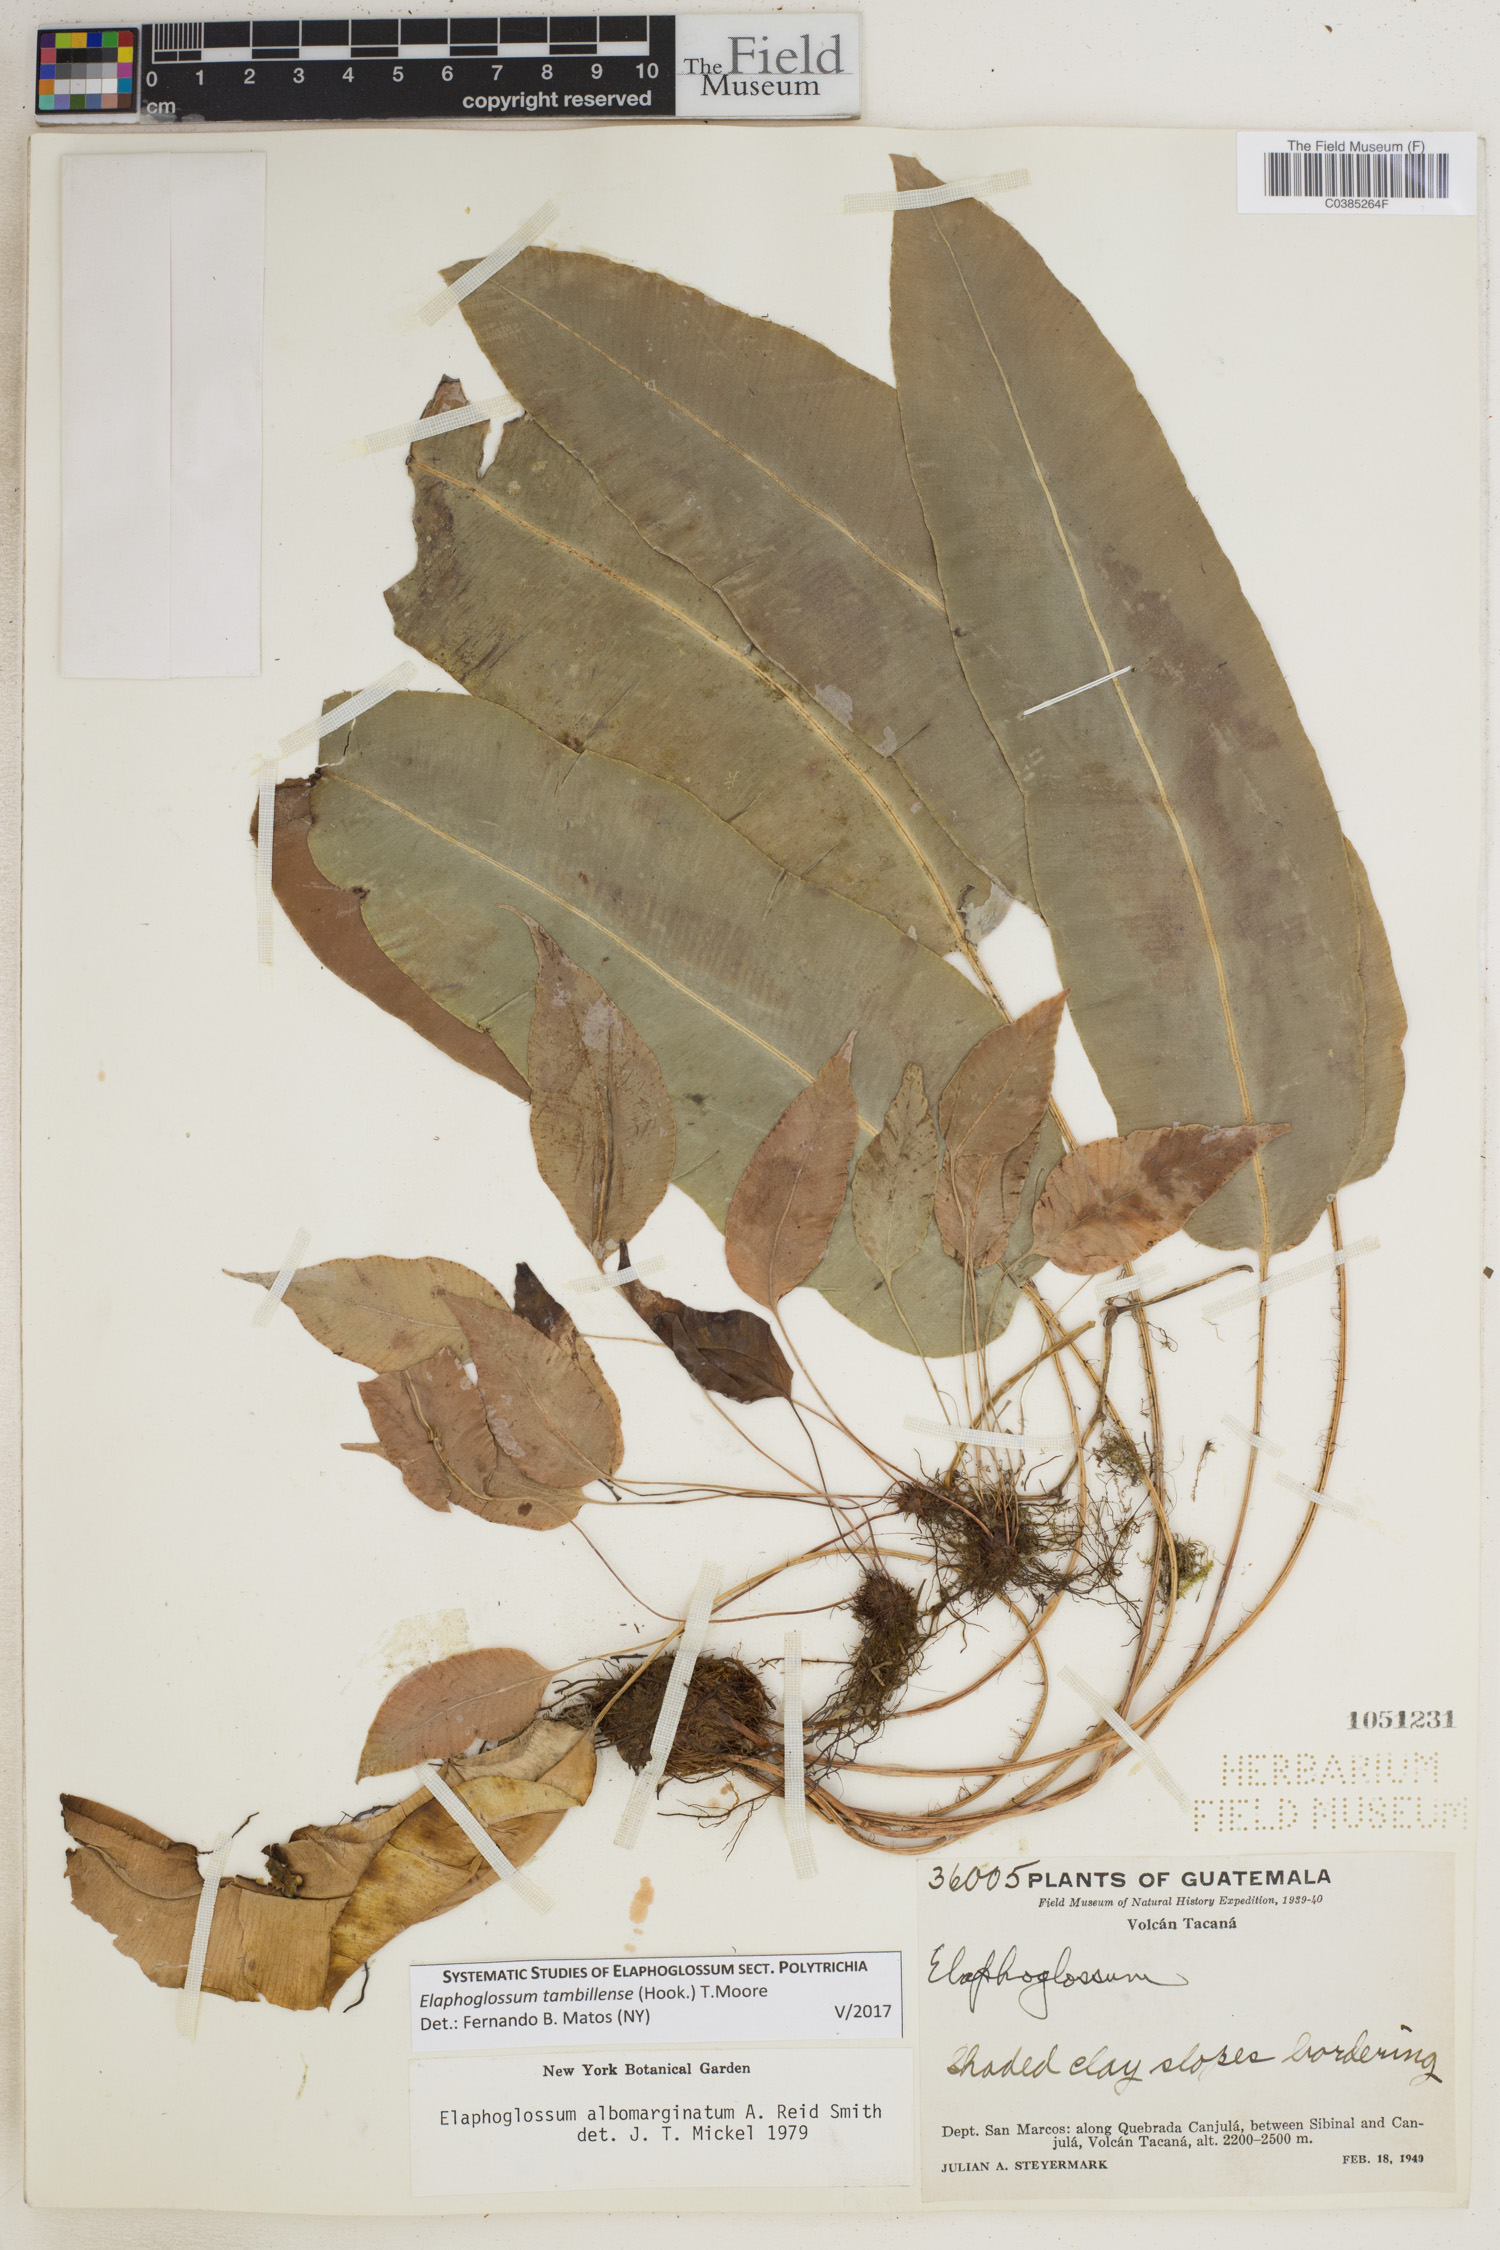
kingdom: Plantae
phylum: Tracheophyta
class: Polypodiopsida
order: Polypodiales
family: Dryopteridaceae
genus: Elaphoglossum
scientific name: Elaphoglossum tambillense
